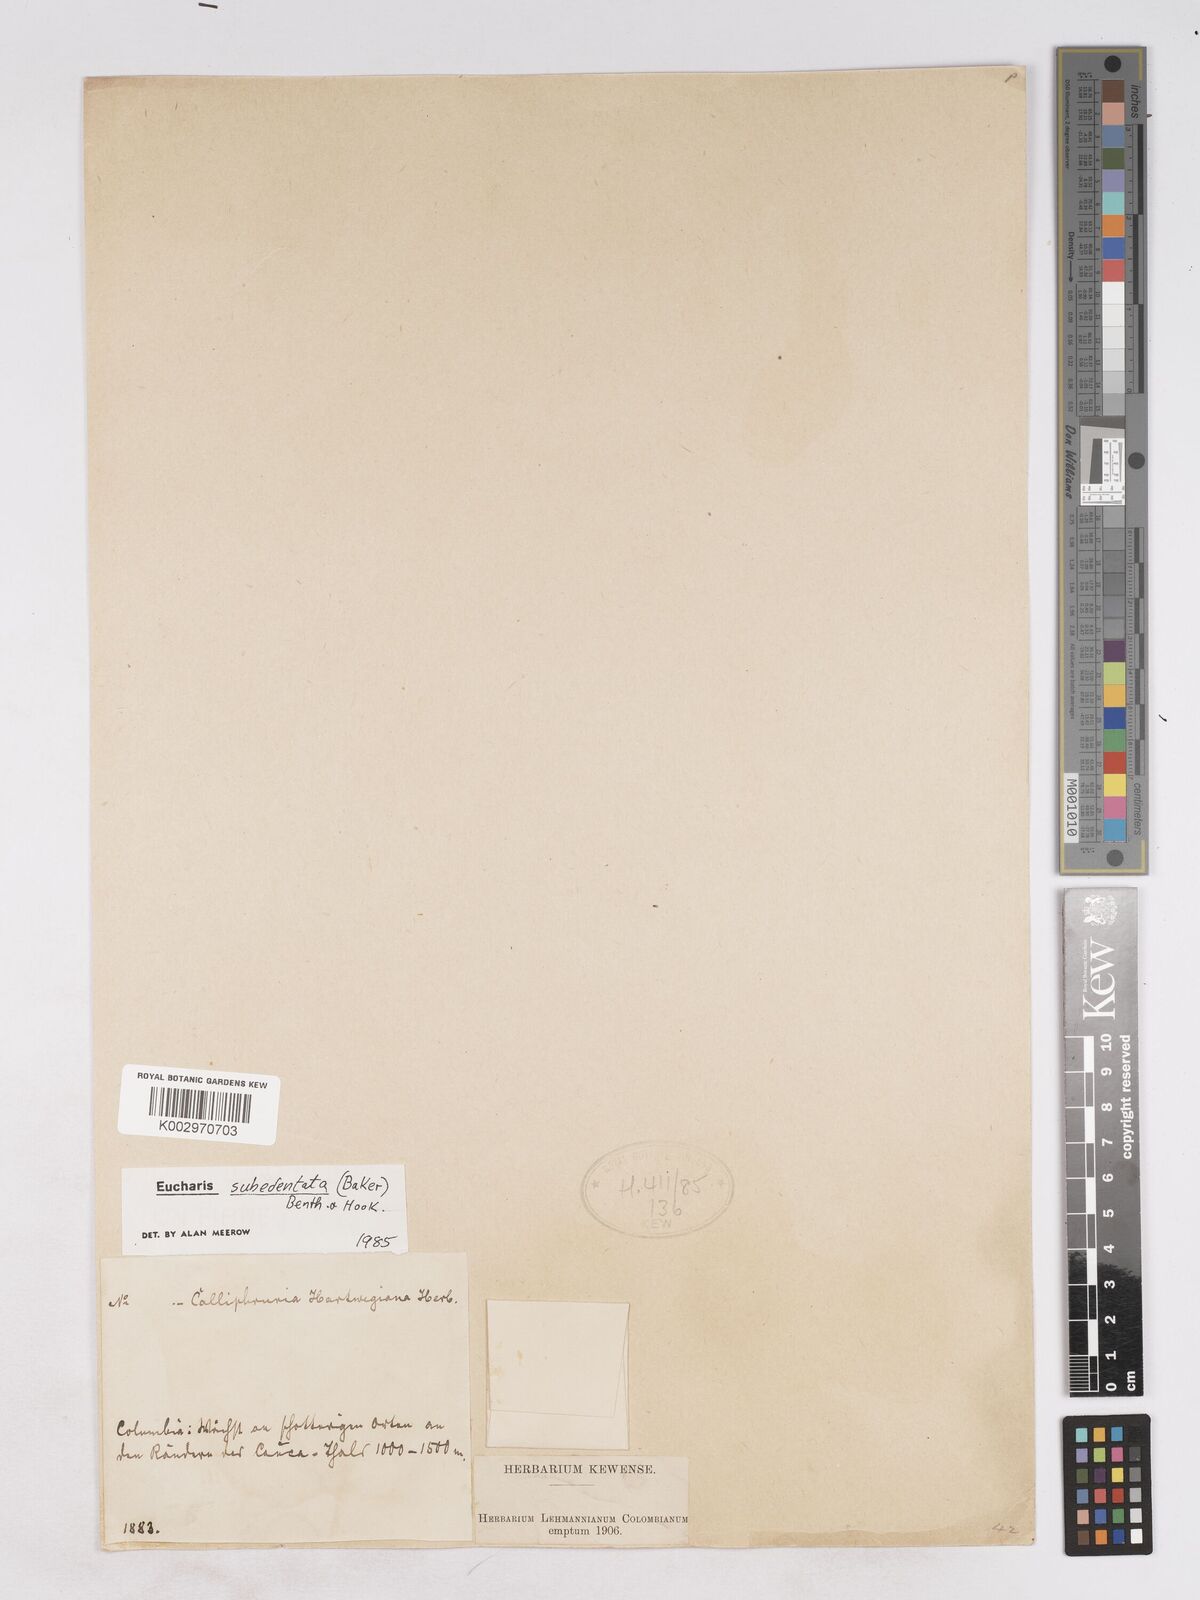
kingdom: Plantae
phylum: Tracheophyta
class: Liliopsida
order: Asparagales
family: Amaryllidaceae
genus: Urceolina
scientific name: Urceolina subedentata
